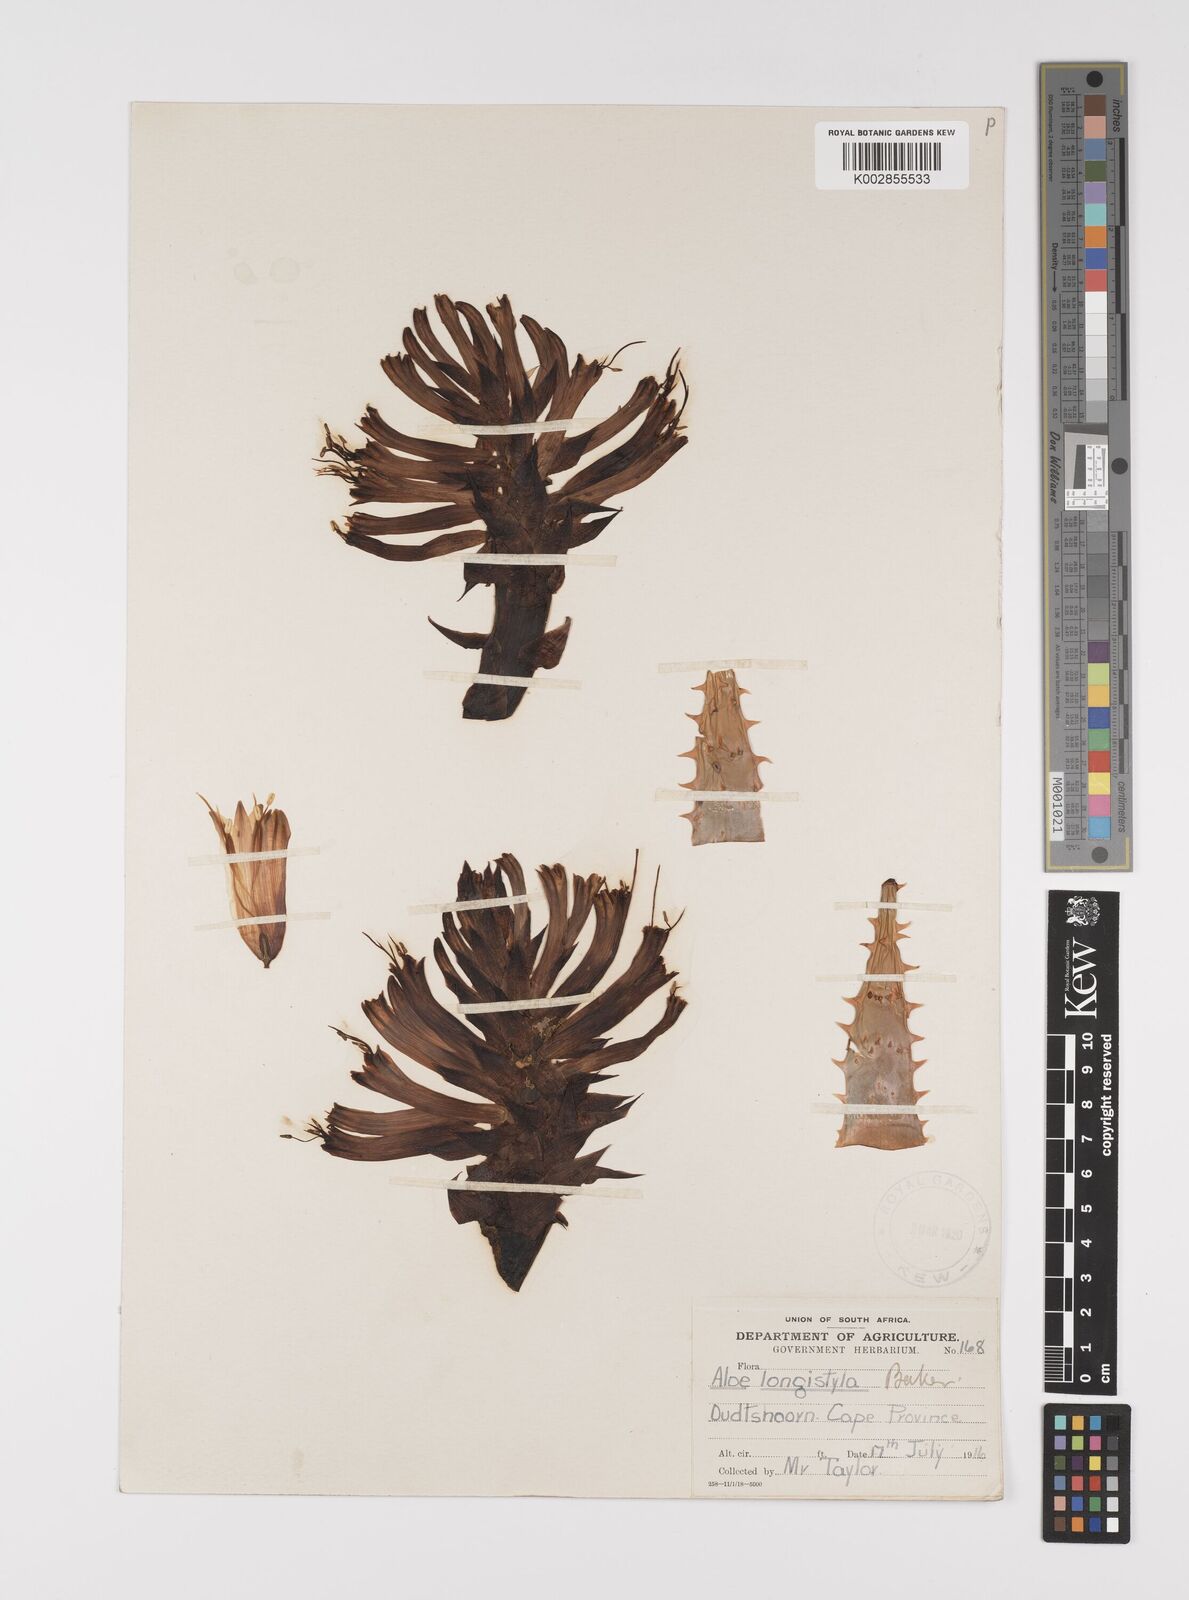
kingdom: Plantae
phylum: Tracheophyta
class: Liliopsida
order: Asparagales
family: Asphodelaceae
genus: Aloe
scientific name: Aloe longistyla
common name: Karoo aloe
